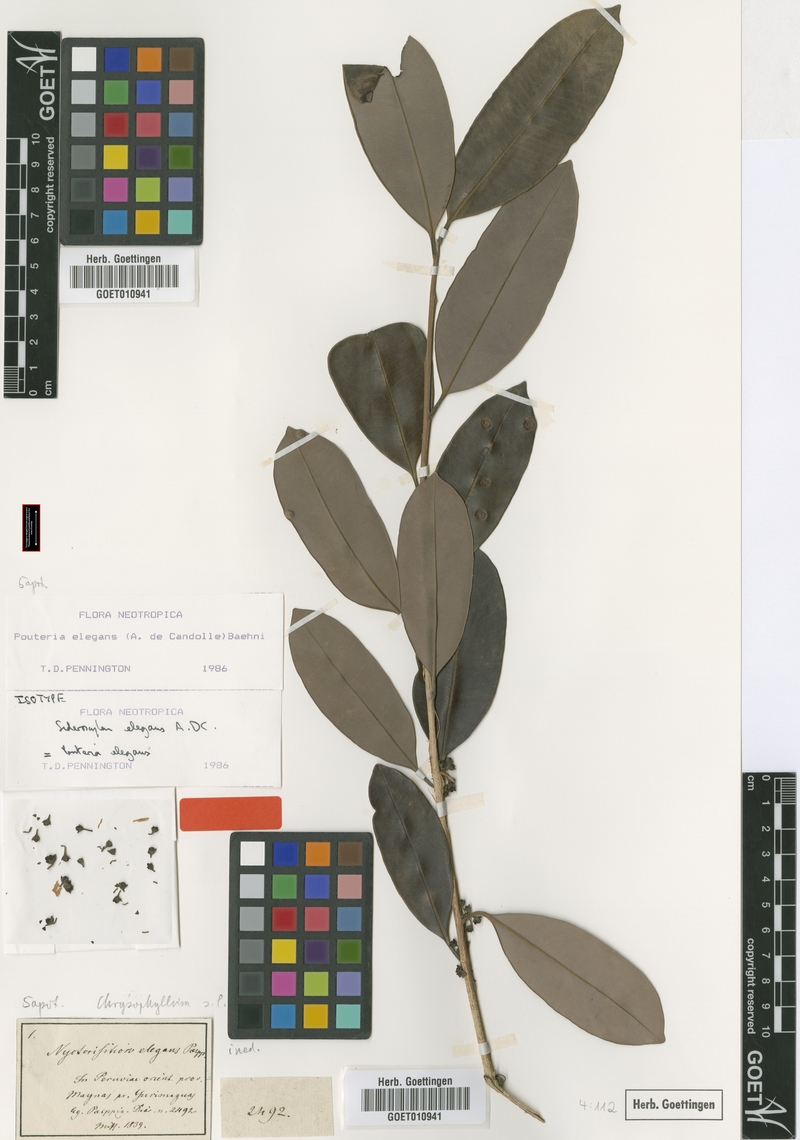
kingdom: Plantae
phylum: Tracheophyta
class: Magnoliopsida
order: Ericales
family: Sapotaceae
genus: Pouteria
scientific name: Pouteria elegans
